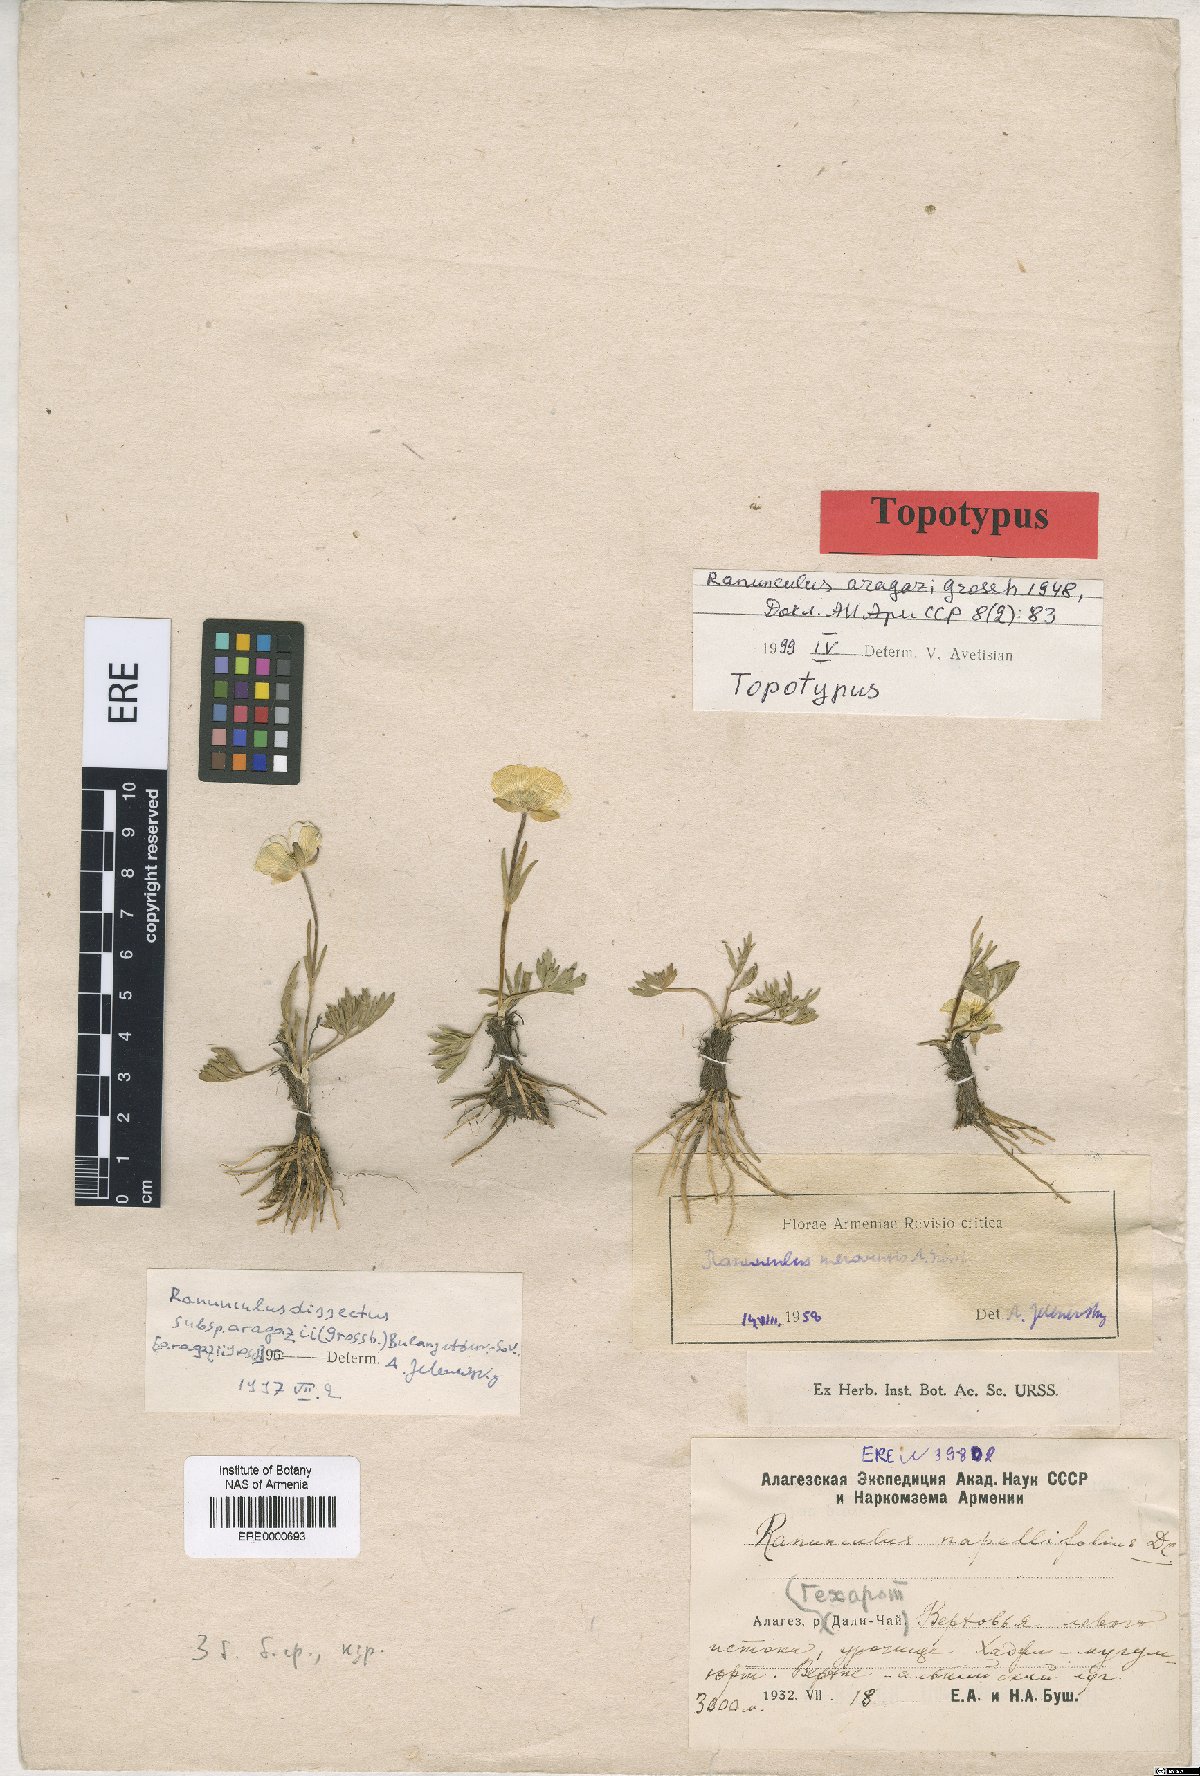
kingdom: Plantae
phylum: Tracheophyta
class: Magnoliopsida
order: Ranunculales
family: Ranunculaceae
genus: Ranunculus
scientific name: Ranunculus dissectus
